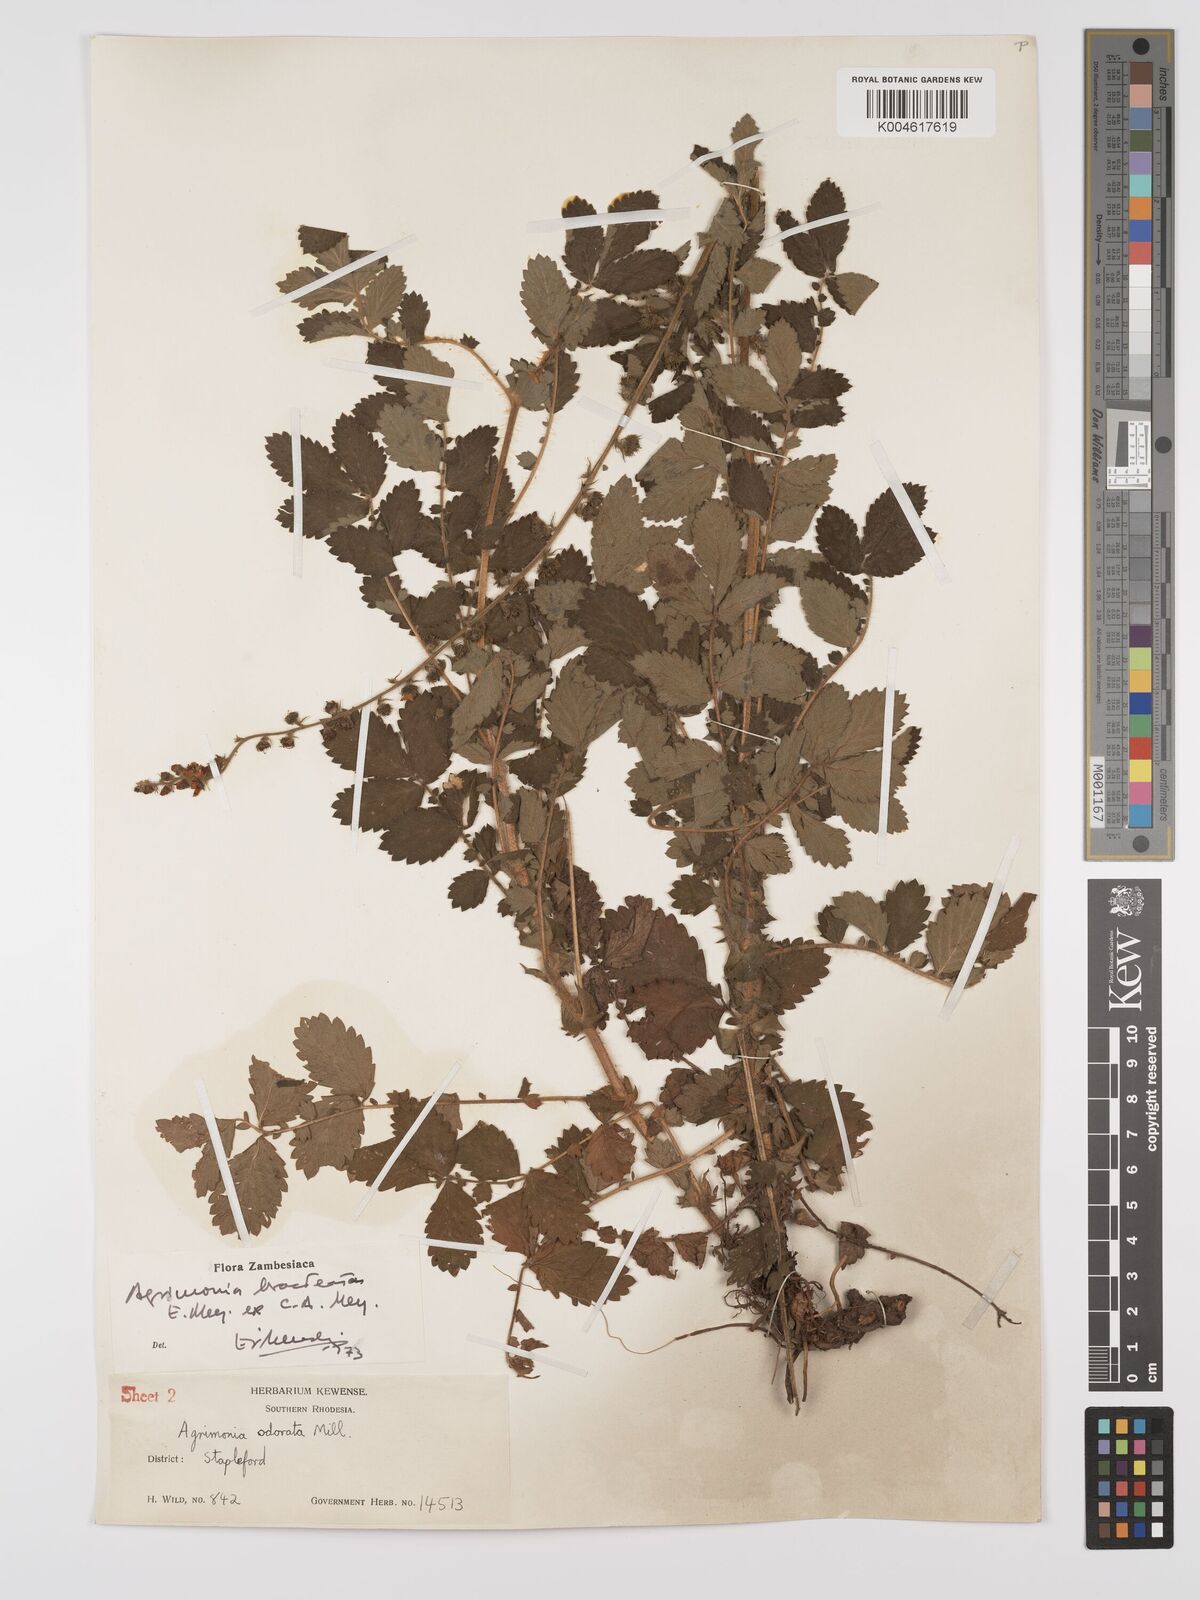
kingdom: Plantae
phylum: Tracheophyta
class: Magnoliopsida
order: Rosales
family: Rosaceae
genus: Agrimonia
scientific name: Agrimonia bracteata
